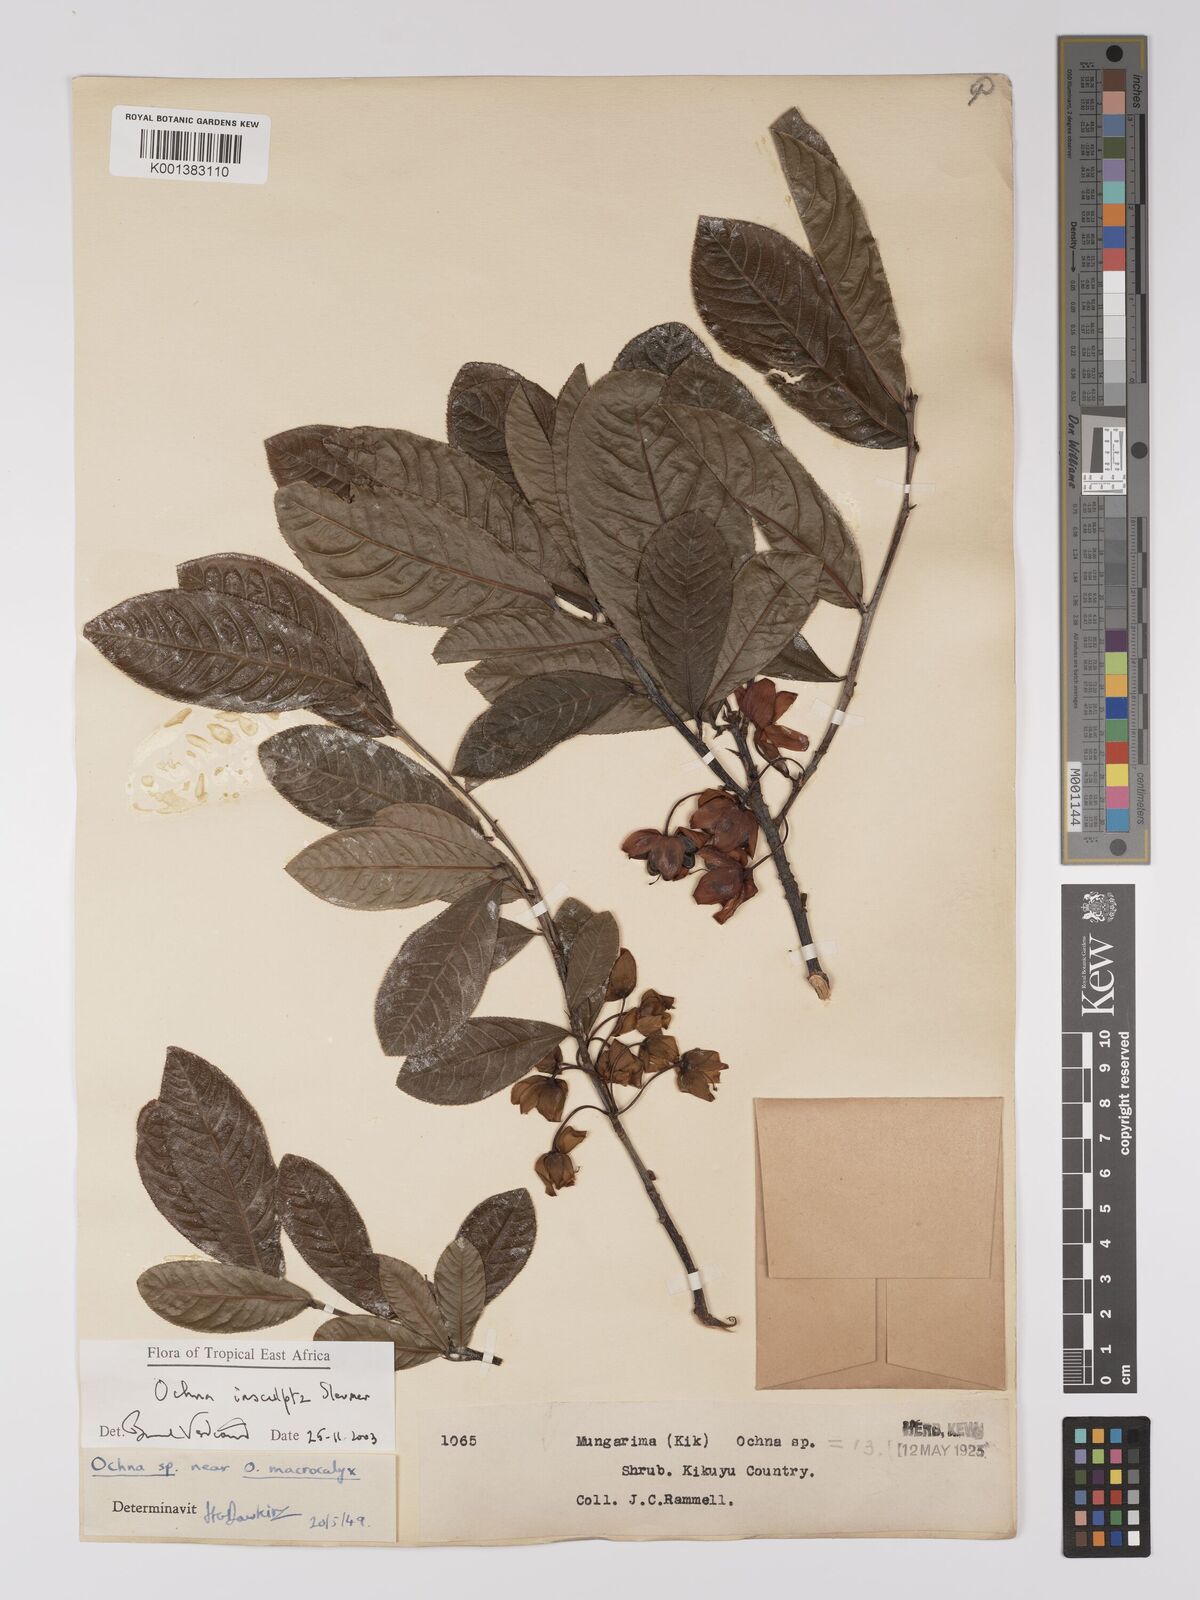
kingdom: Plantae
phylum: Tracheophyta
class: Magnoliopsida
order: Malpighiales
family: Ochnaceae
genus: Ochna
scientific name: Ochna insculpta
